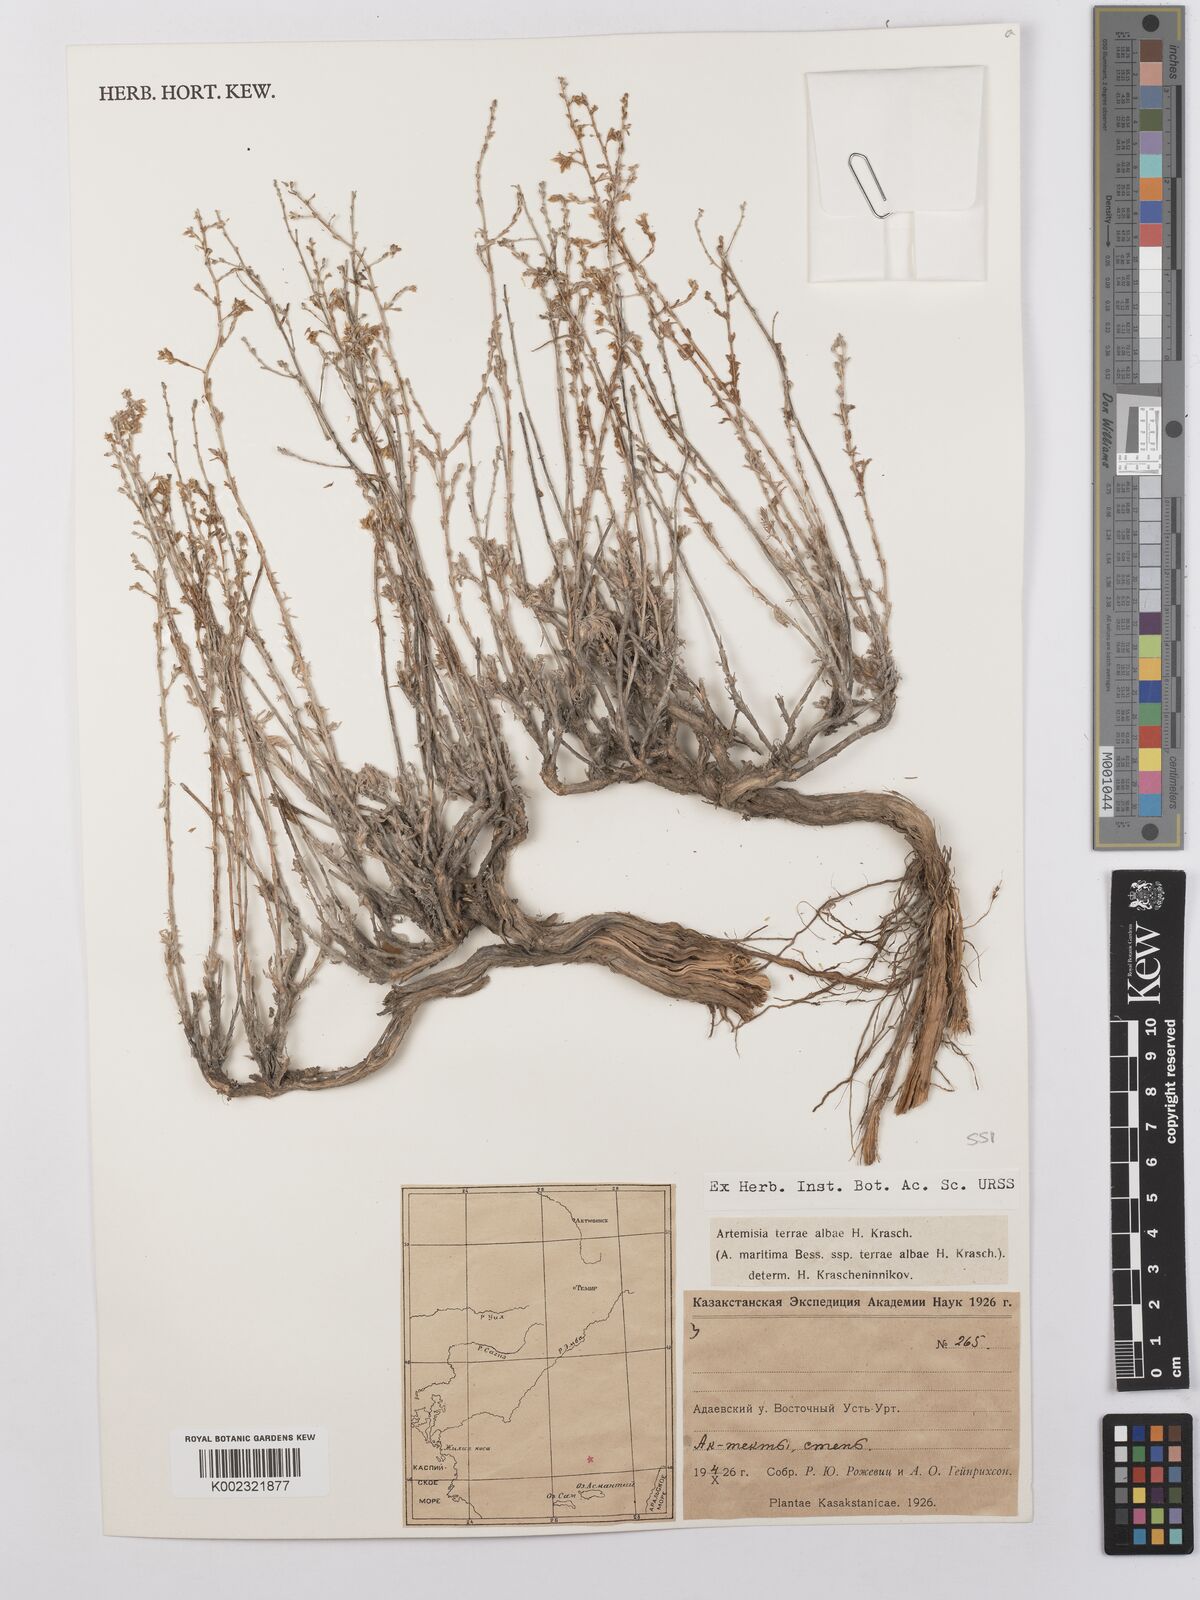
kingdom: Plantae
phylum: Tracheophyta
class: Magnoliopsida
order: Asterales
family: Asteraceae
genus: Artemisia
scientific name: Artemisia terrae-albae
